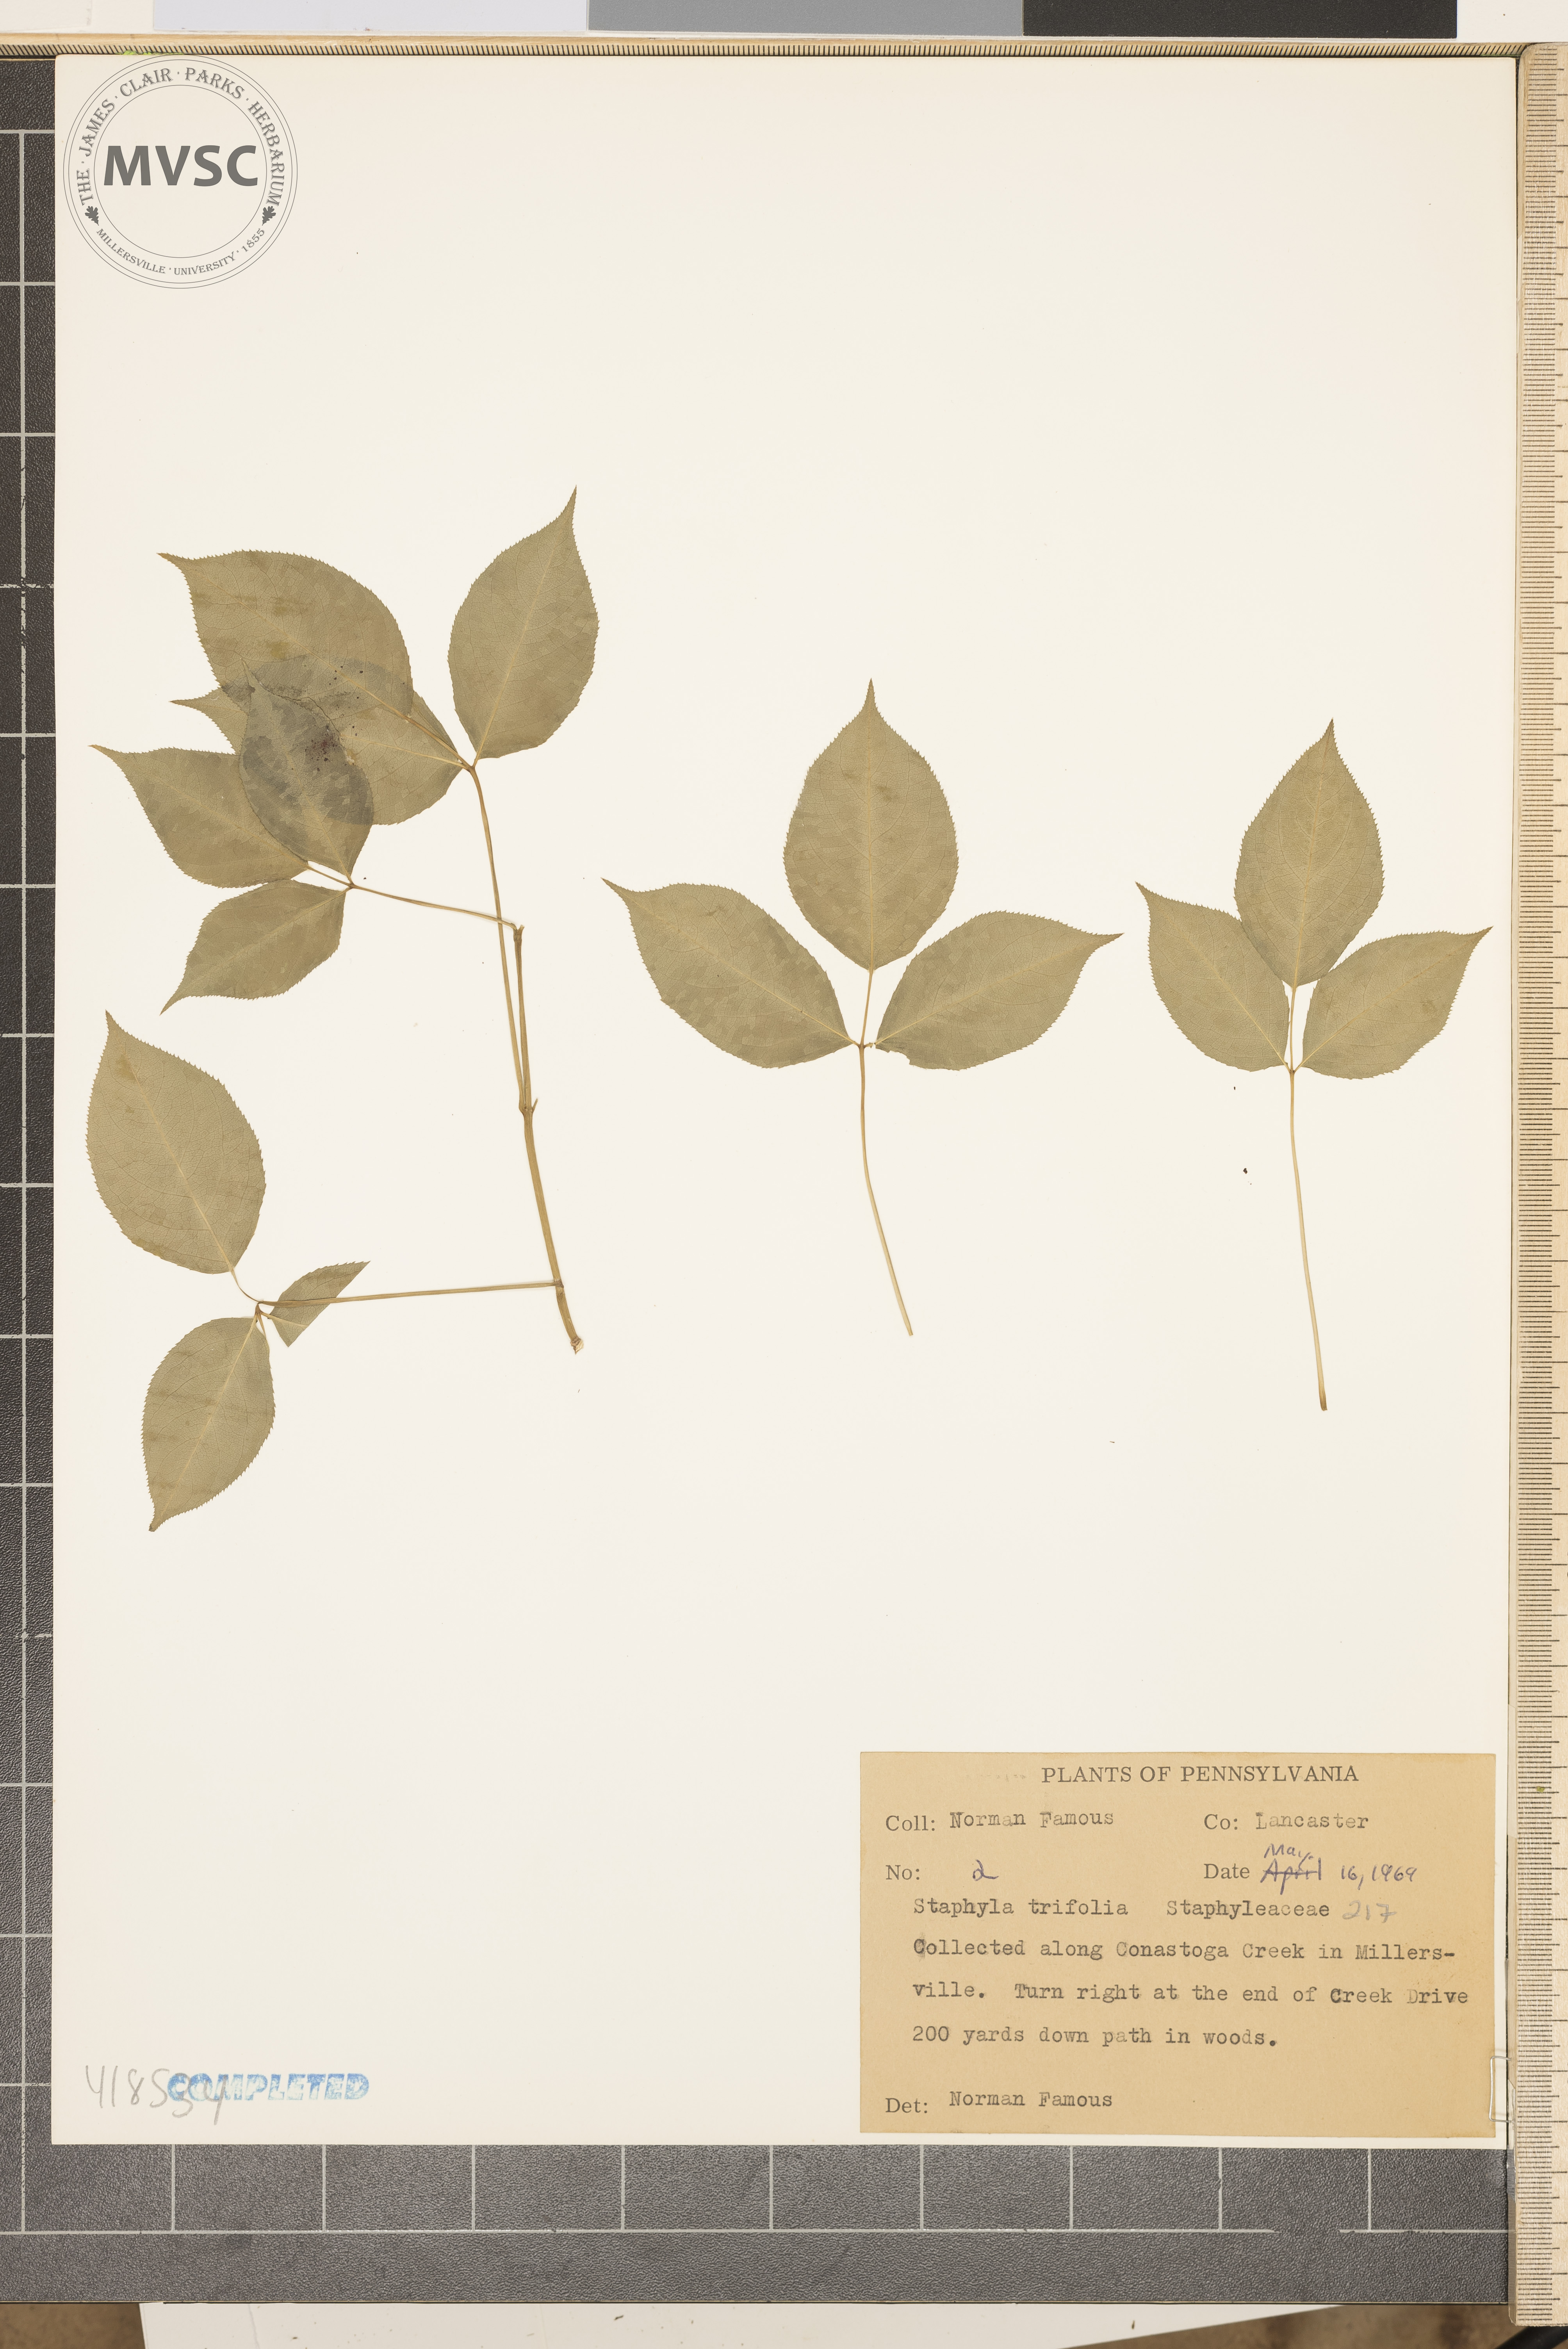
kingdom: Plantae
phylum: Tracheophyta
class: Magnoliopsida
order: Crossosomatales
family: Staphyleaceae
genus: Staphylea
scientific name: Staphylea trifolia
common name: American bladdernut
